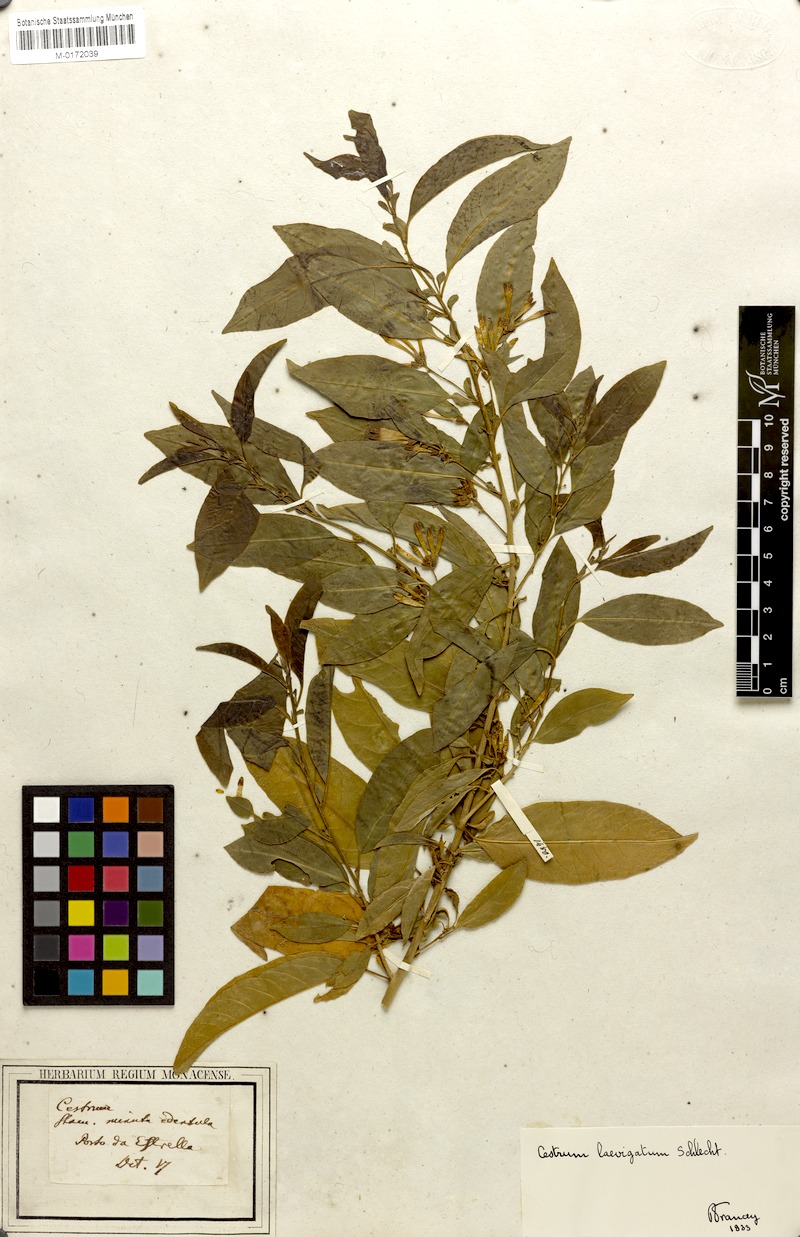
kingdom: Plantae
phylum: Tracheophyta
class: Magnoliopsida
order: Solanales
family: Solanaceae
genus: Cestrum
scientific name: Cestrum laevigatum
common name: Inkberry
